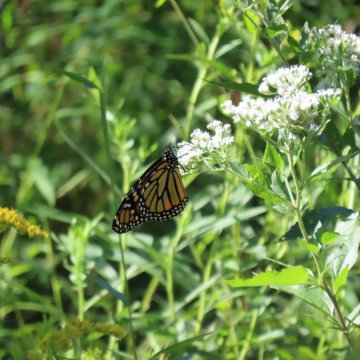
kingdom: Animalia
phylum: Arthropoda
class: Insecta
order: Lepidoptera
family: Nymphalidae
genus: Danaus
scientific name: Danaus plexippus
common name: Monarch
